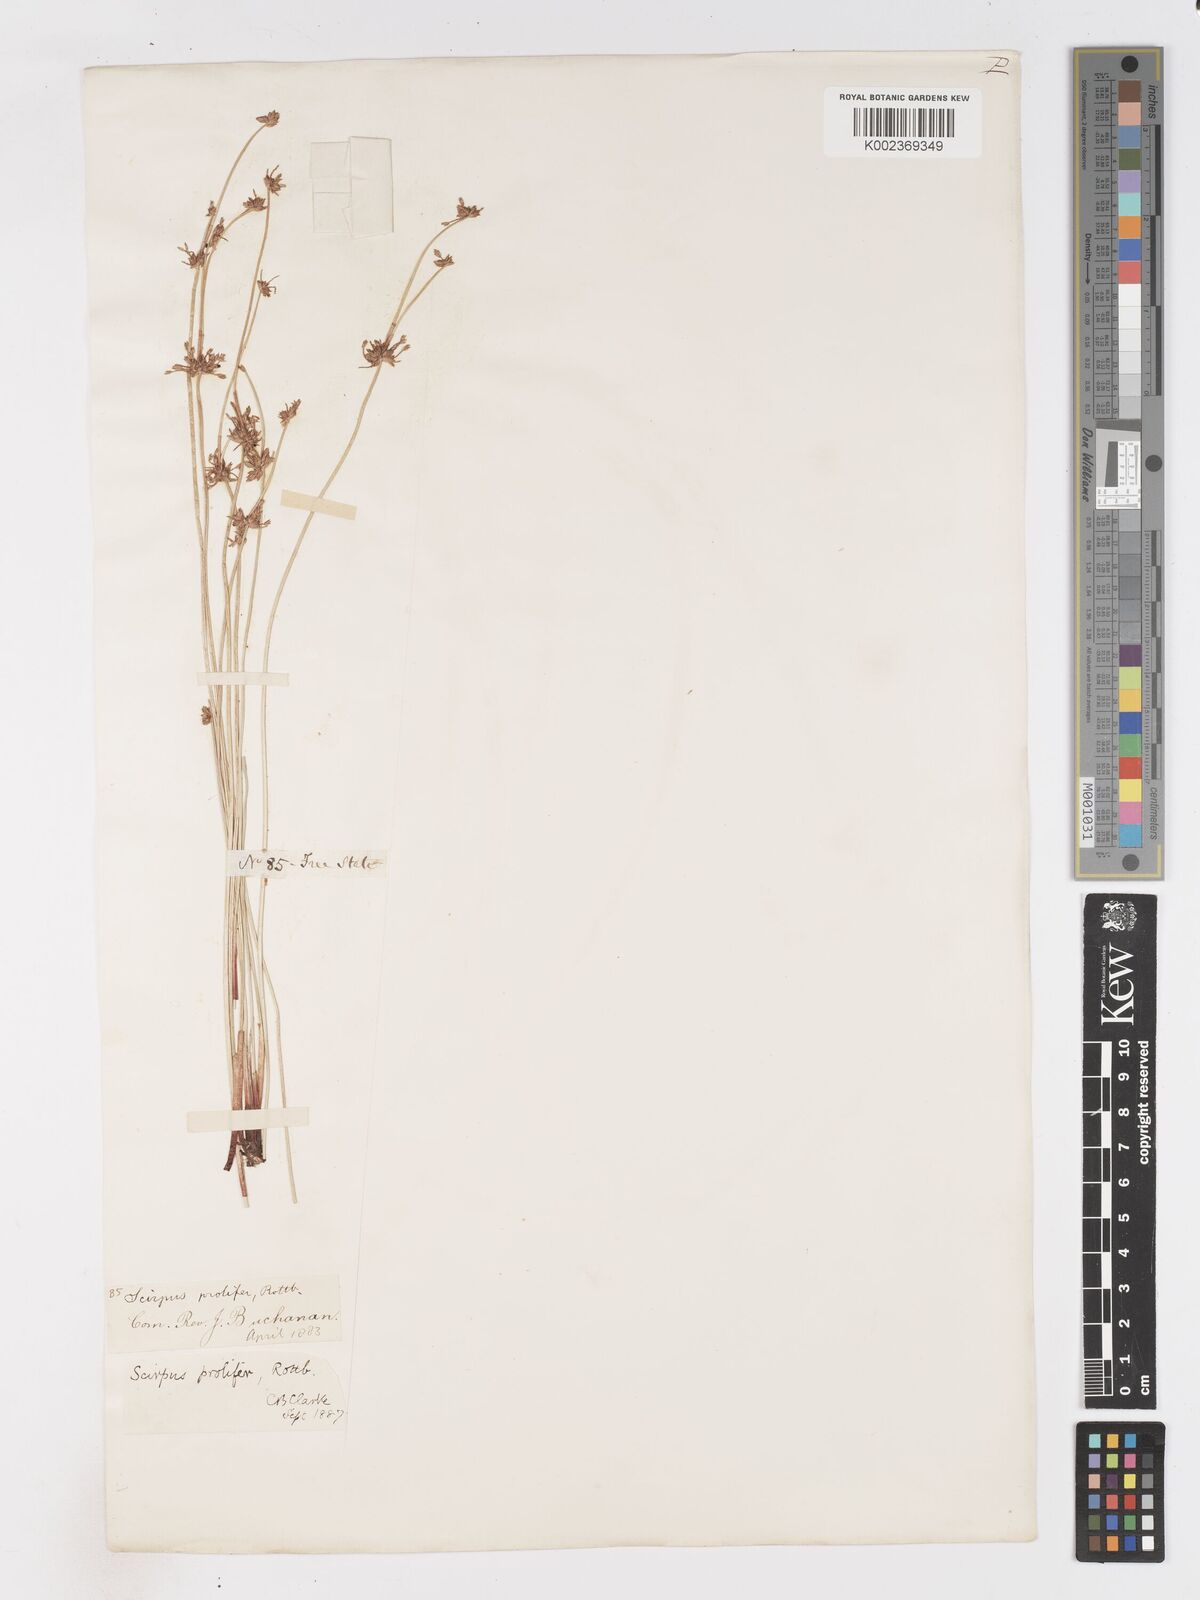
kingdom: Plantae
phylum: Tracheophyta
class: Liliopsida
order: Poales
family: Cyperaceae
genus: Isolepis
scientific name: Isolepis prolifera
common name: Proliferating bulrush
